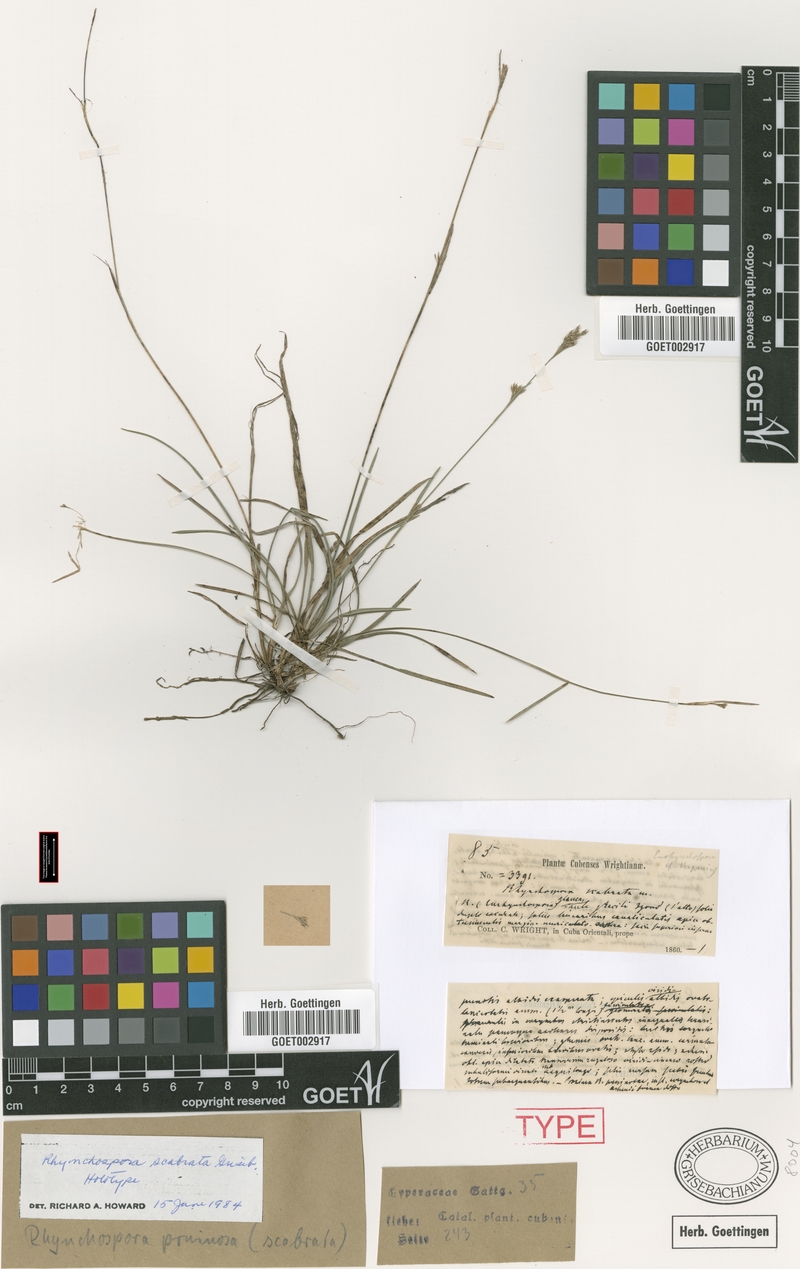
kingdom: Plantae
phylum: Tracheophyta
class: Liliopsida
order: Poales
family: Cyperaceae
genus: Rhynchospora
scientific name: Rhynchospora scabrata
